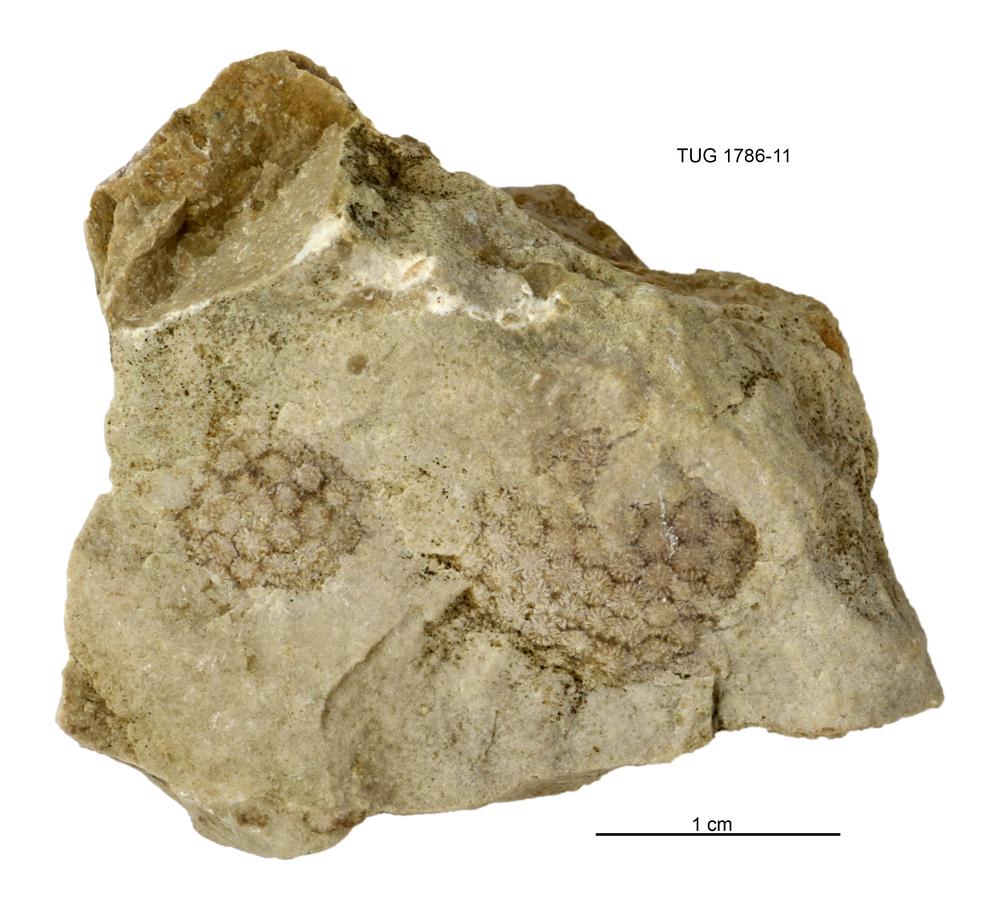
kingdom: Plantae
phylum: Chlorophyta
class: Ulvophyceae
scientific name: Ulvophyceae
